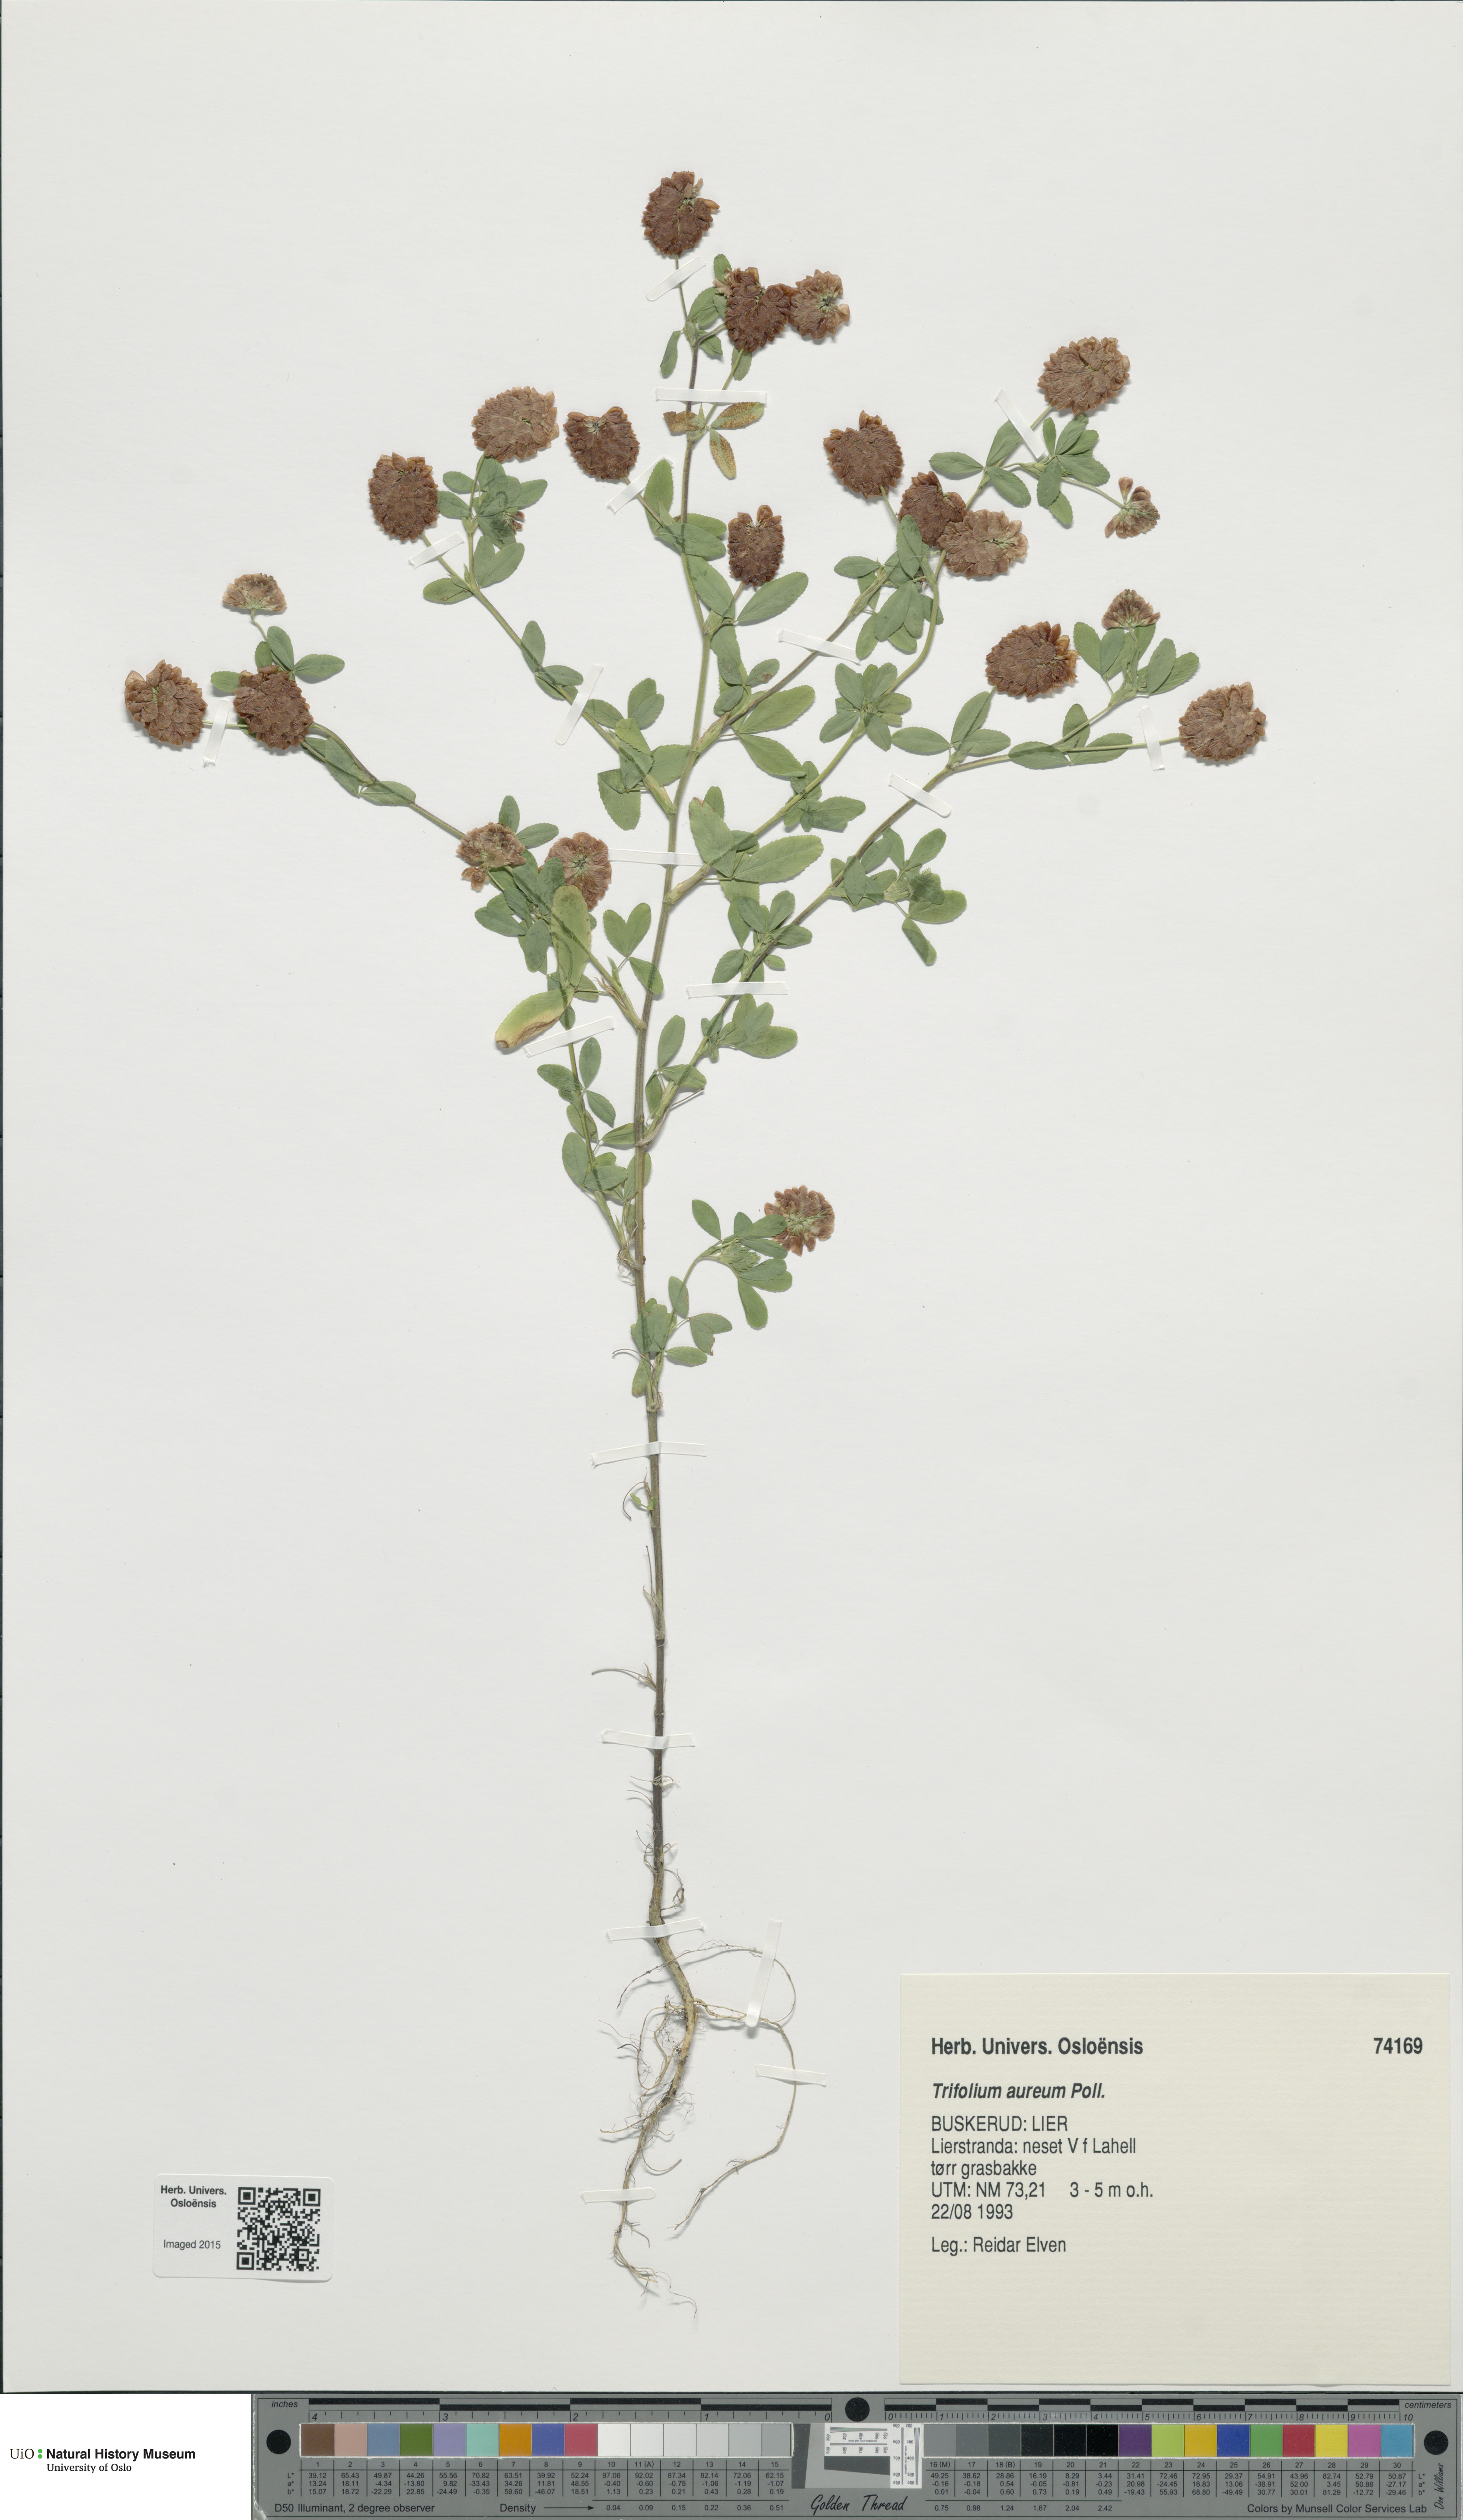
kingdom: Plantae
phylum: Tracheophyta
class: Magnoliopsida
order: Fabales
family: Fabaceae
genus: Trifolium
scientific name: Trifolium aureum
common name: Golden clover
